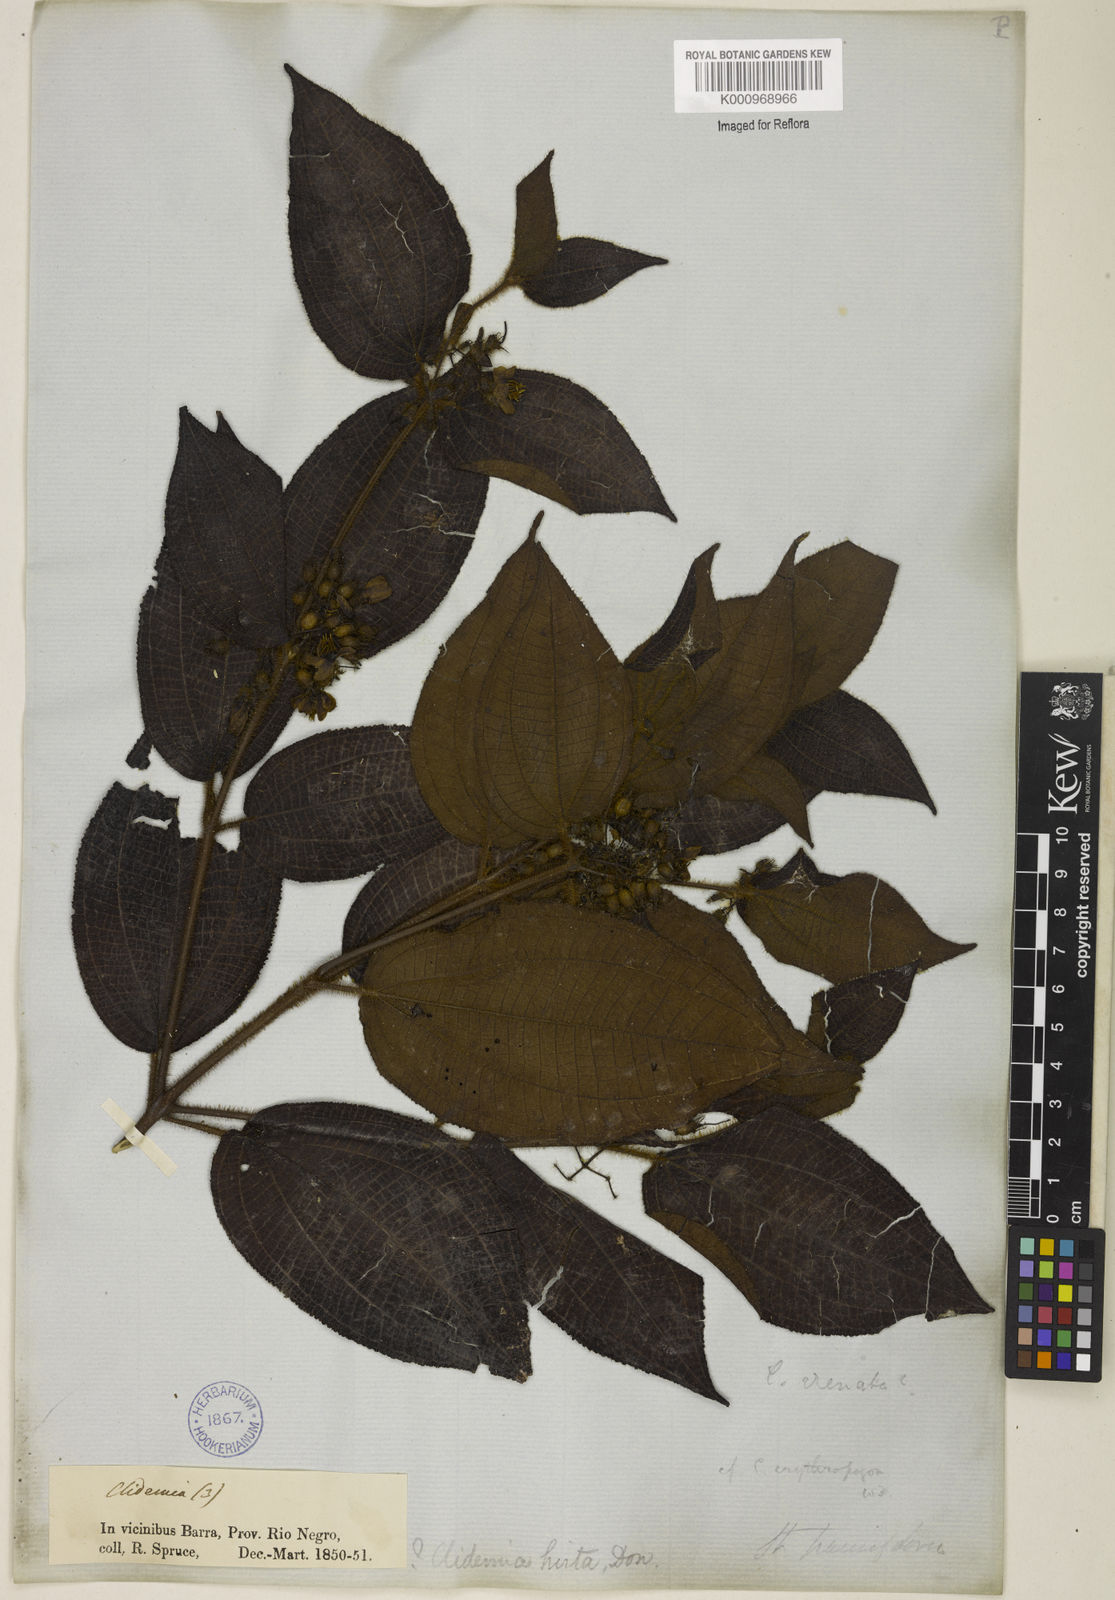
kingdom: Plantae
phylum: Tracheophyta
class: Magnoliopsida
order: Myrtales
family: Melastomataceae
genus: Miconia
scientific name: Miconia crenata
